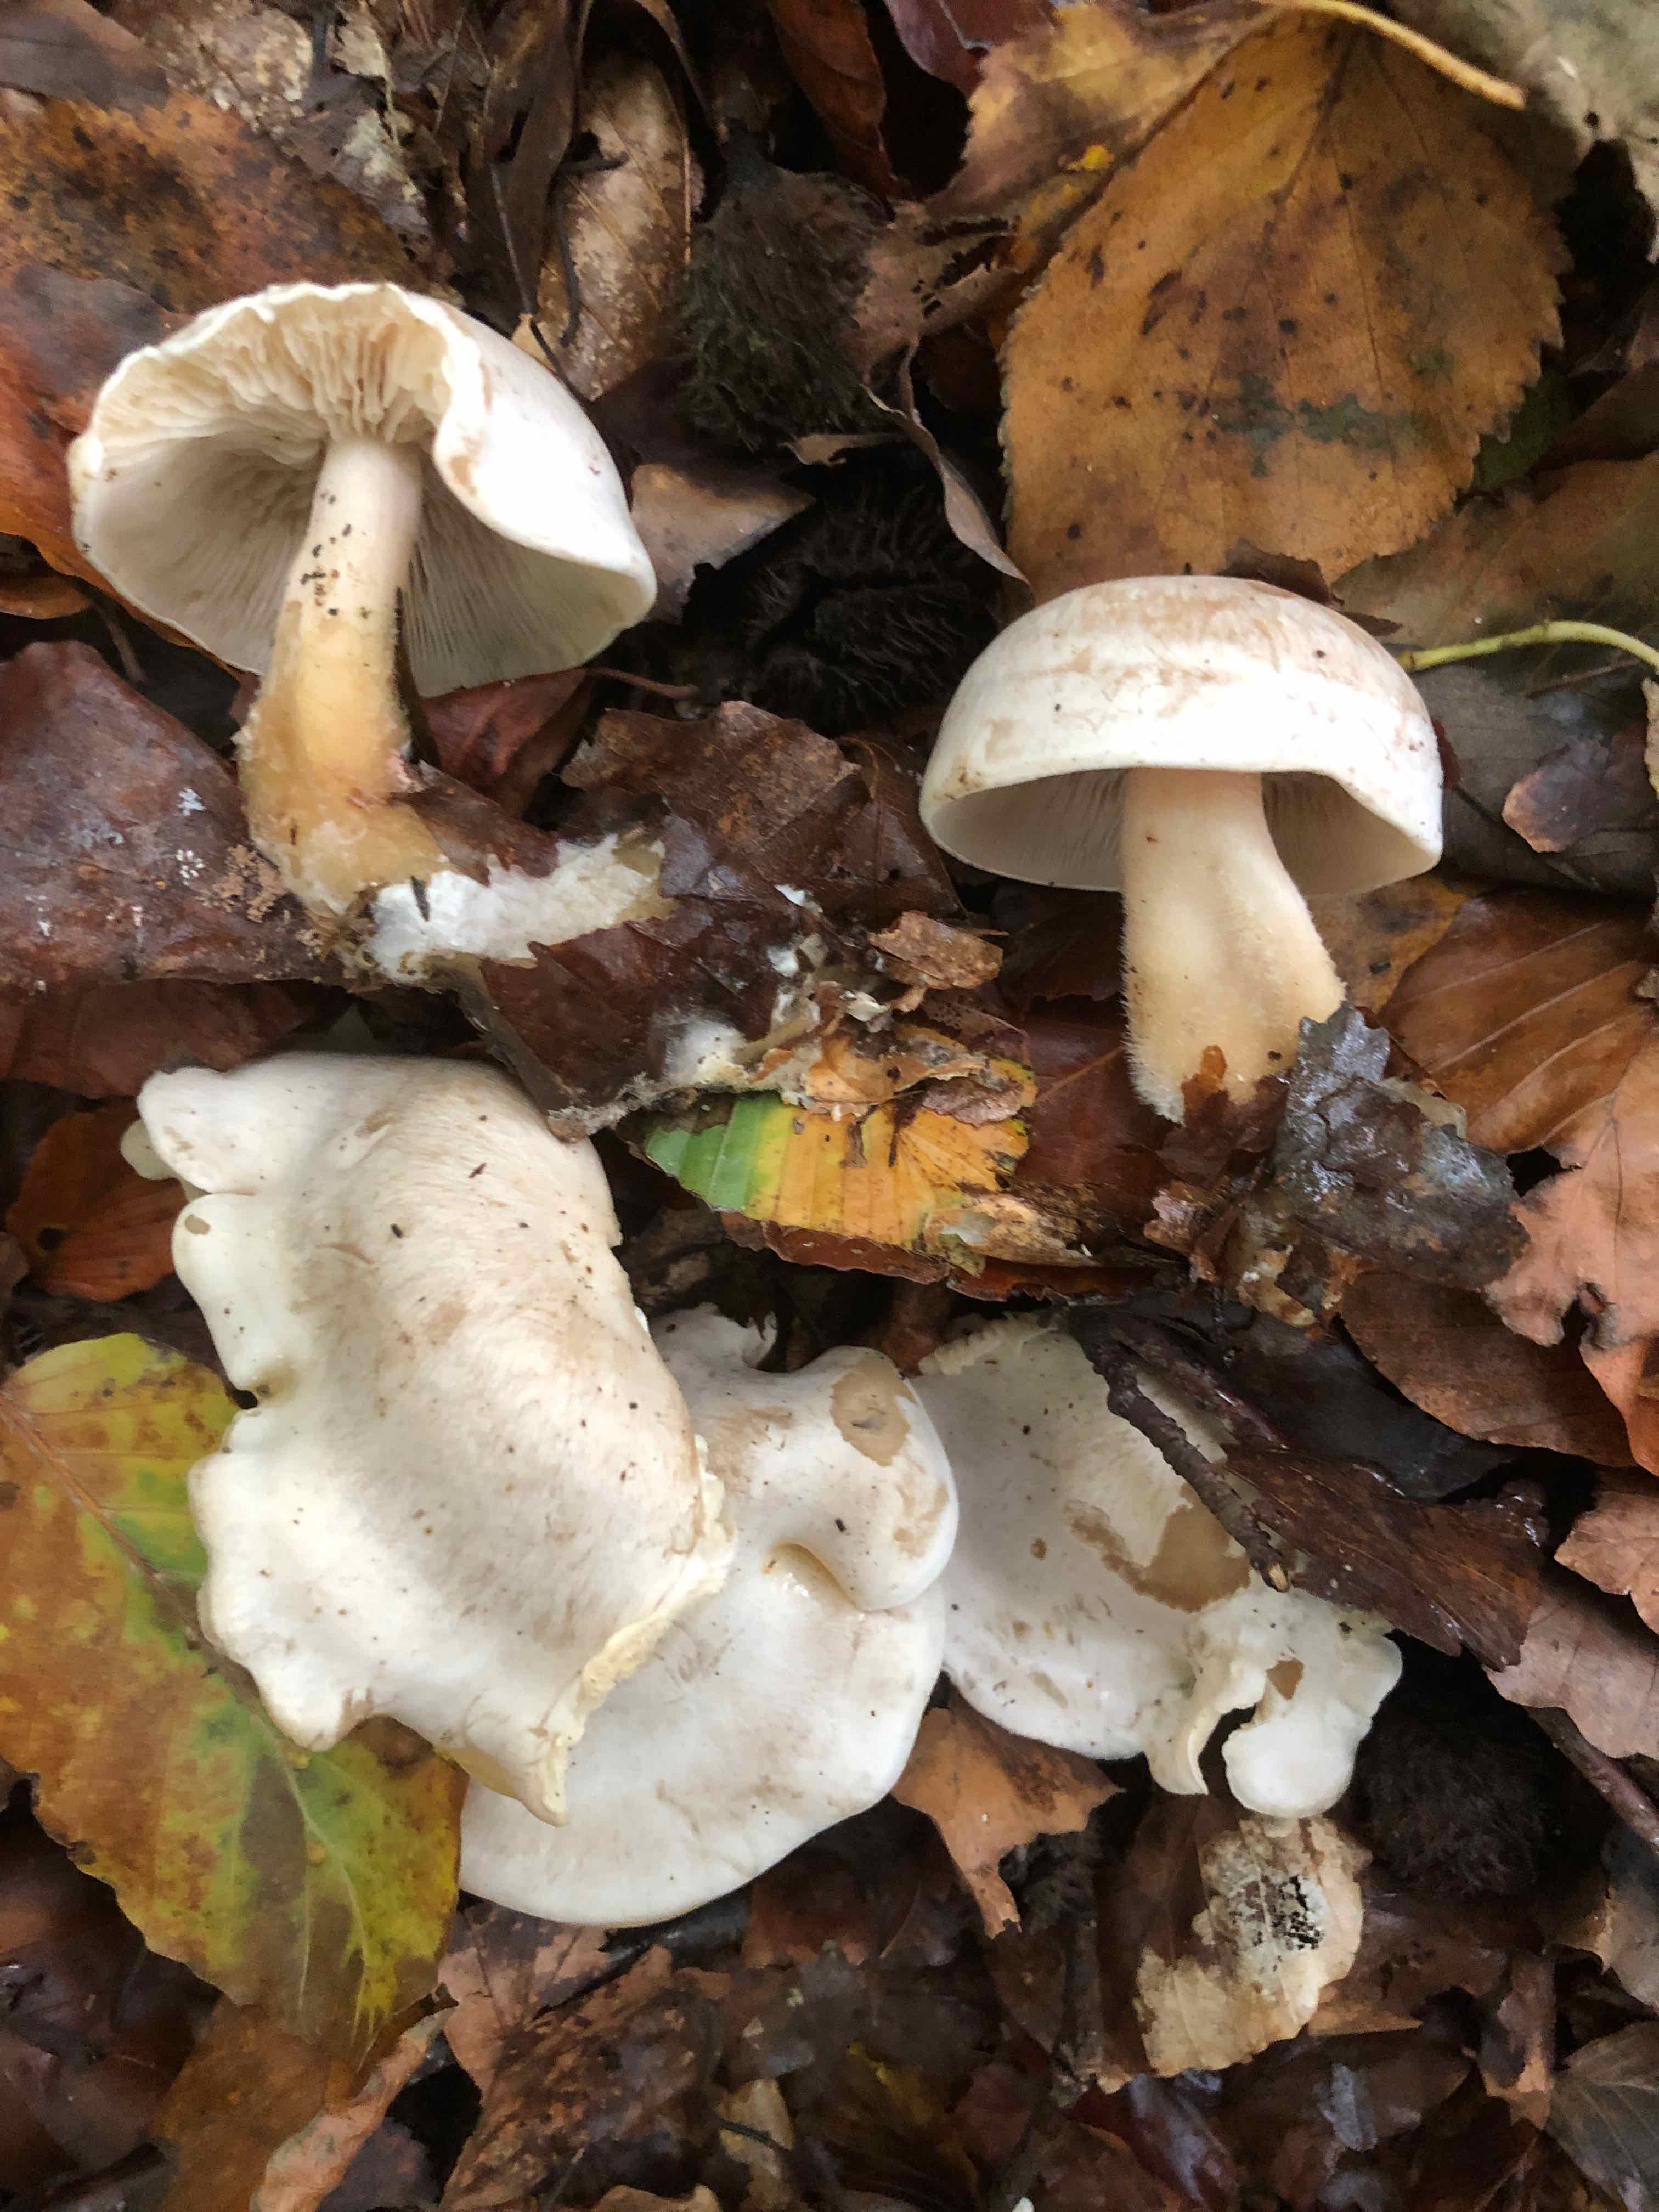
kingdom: Fungi
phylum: Basidiomycota
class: Agaricomycetes
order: Agaricales
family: Tricholomataceae
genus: Clitocybe
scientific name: Clitocybe phyllophila
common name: løv-tragthat
